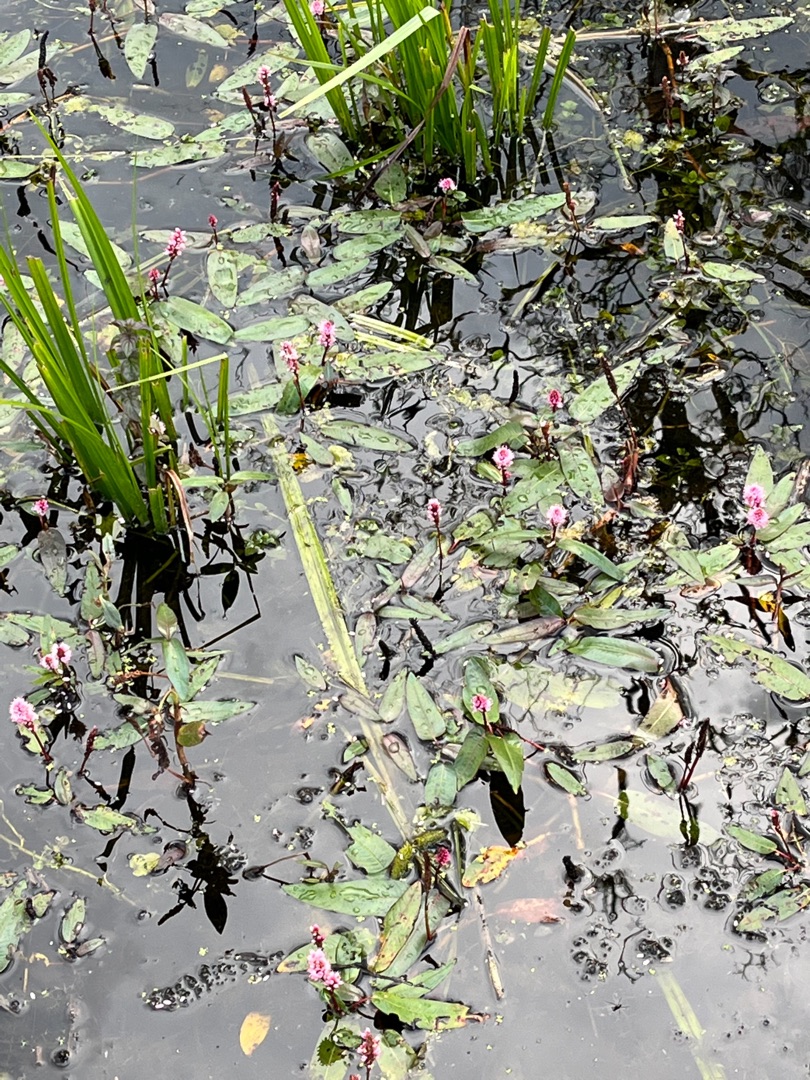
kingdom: Plantae
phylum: Tracheophyta
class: Magnoliopsida
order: Caryophyllales
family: Polygonaceae
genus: Persicaria
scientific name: Persicaria amphibia
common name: Vand-pileurt
